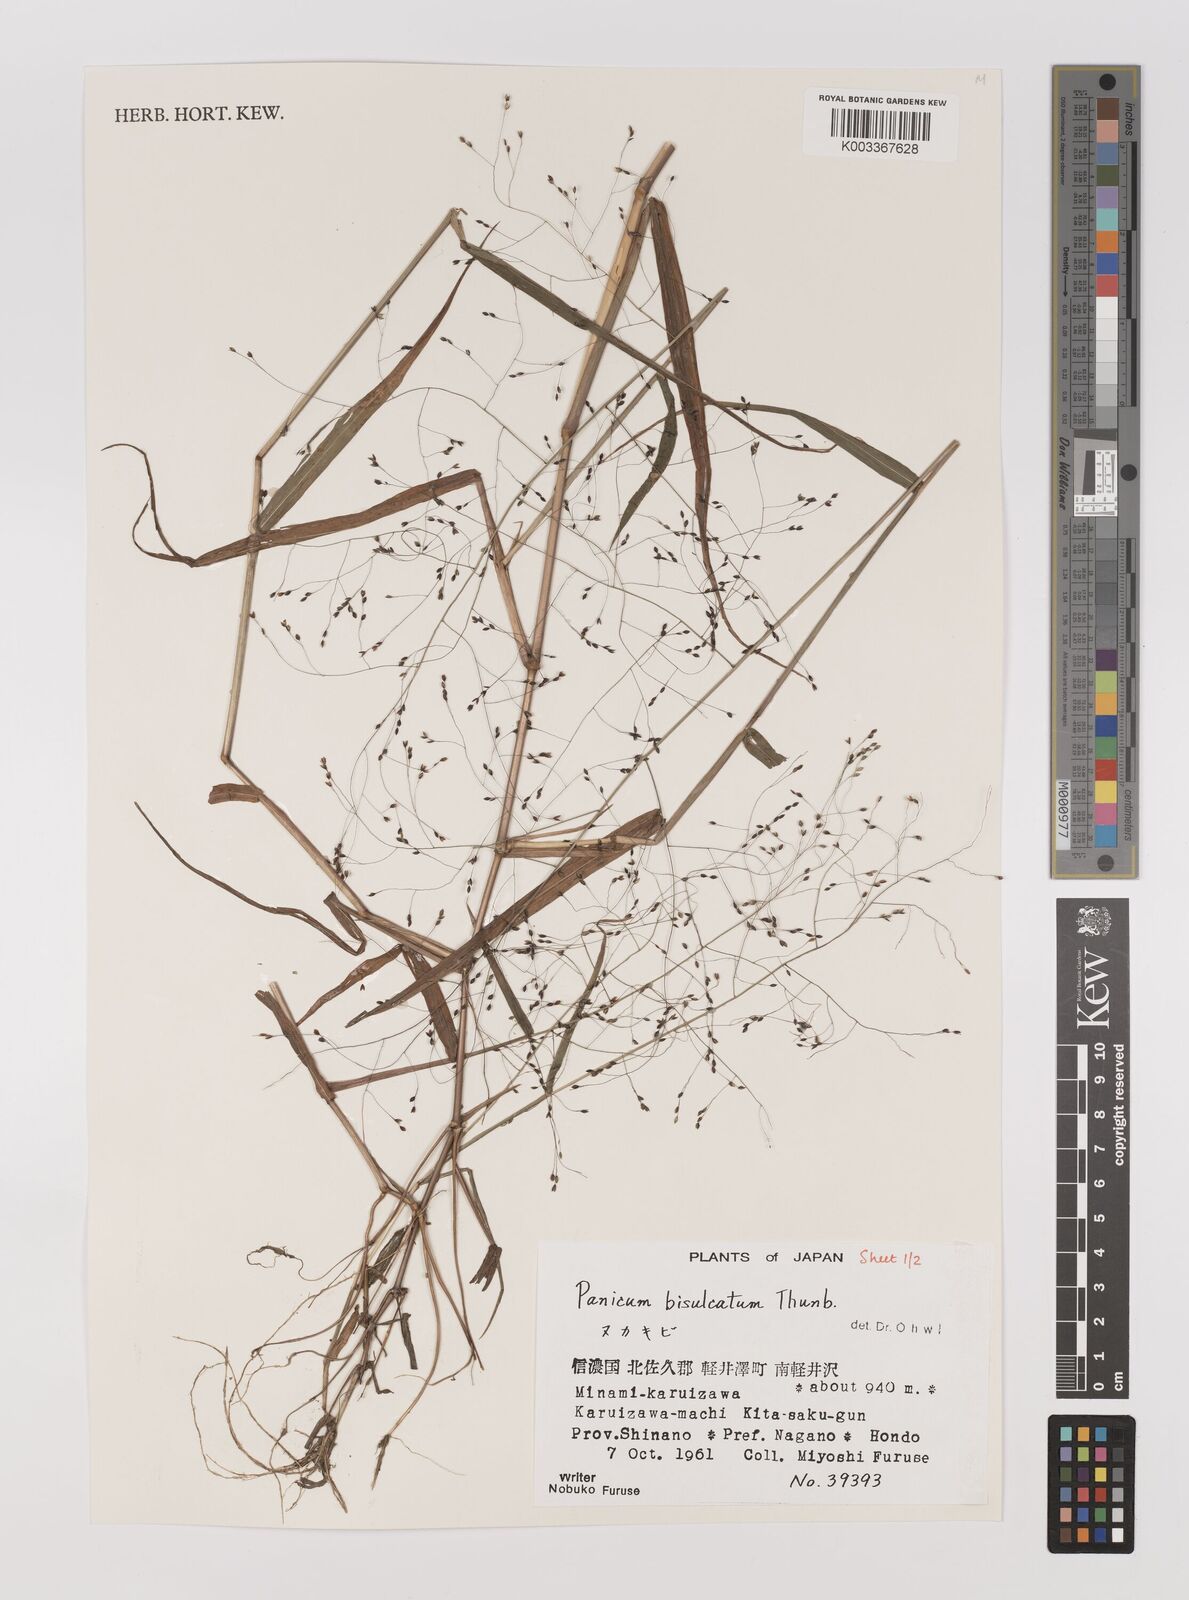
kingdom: Plantae
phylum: Tracheophyta
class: Liliopsida
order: Poales
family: Poaceae
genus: Panicum
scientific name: Panicum bisulcatum
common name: Japanese panicgrass
